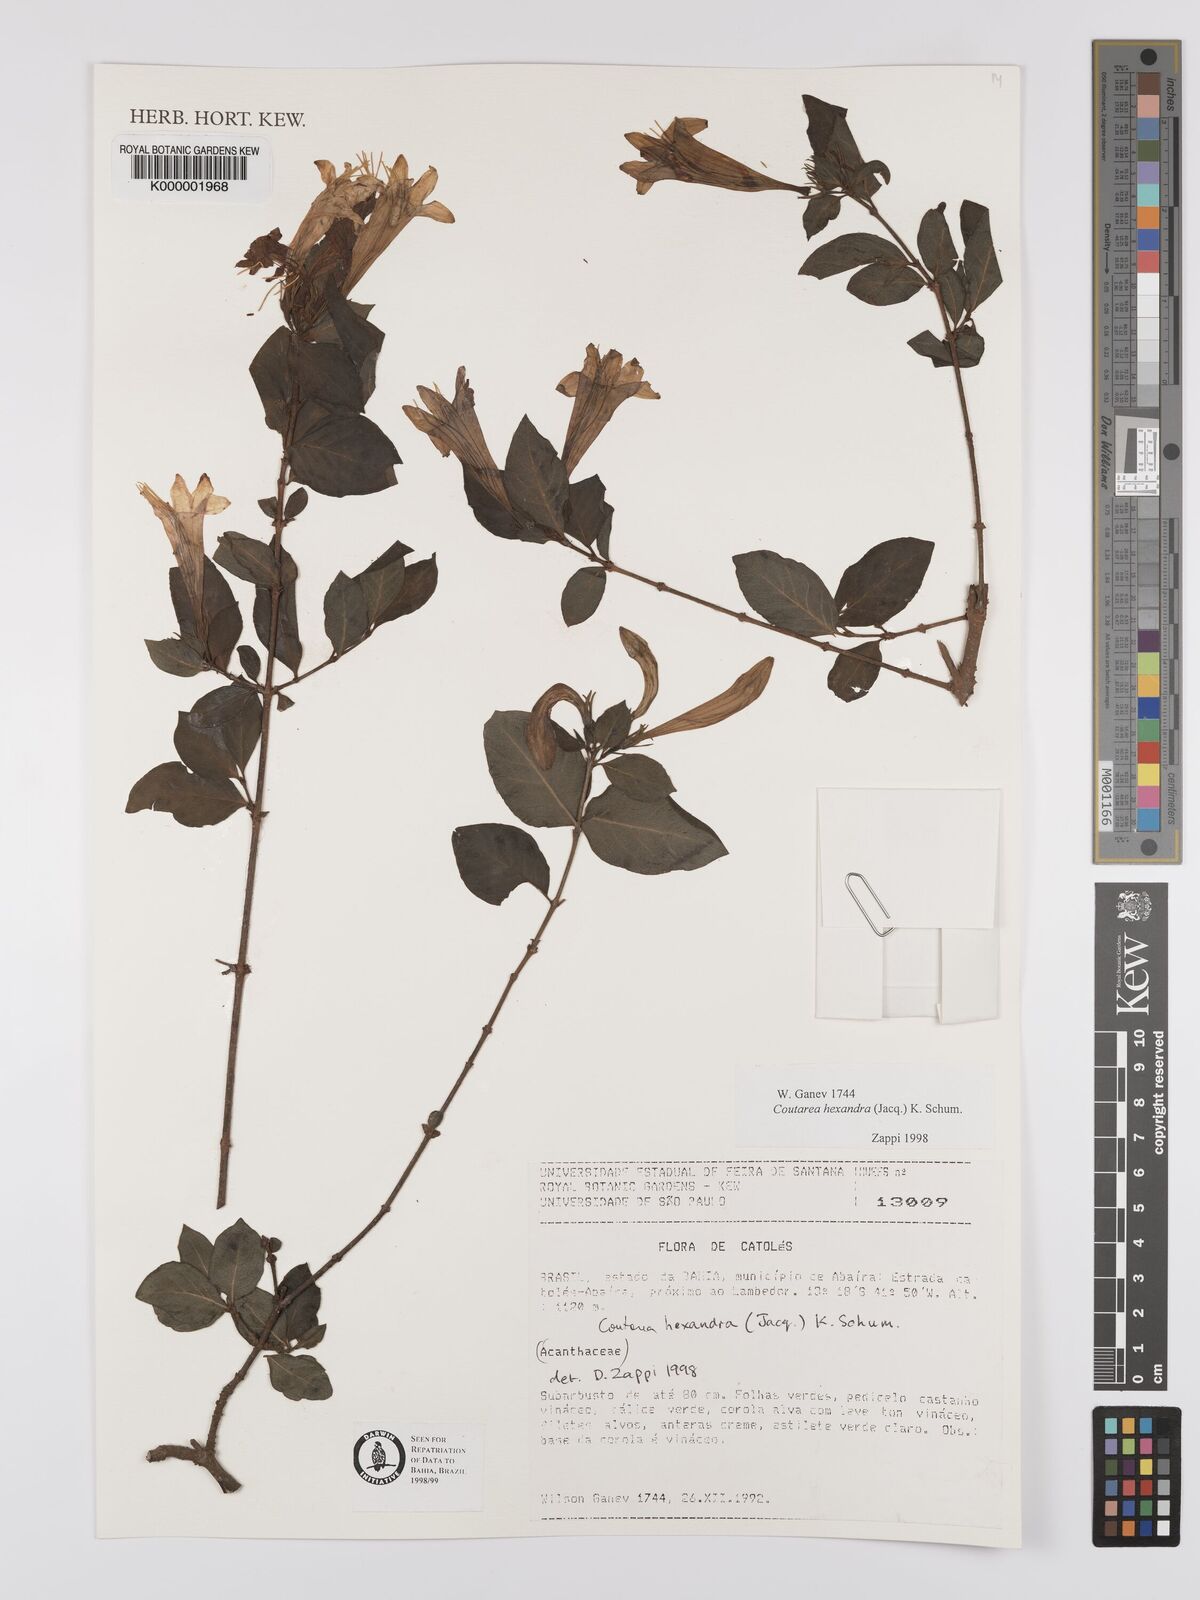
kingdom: Plantae
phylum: Tracheophyta
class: Magnoliopsida
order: Gentianales
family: Rubiaceae
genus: Coutarea
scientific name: Coutarea hexandra
